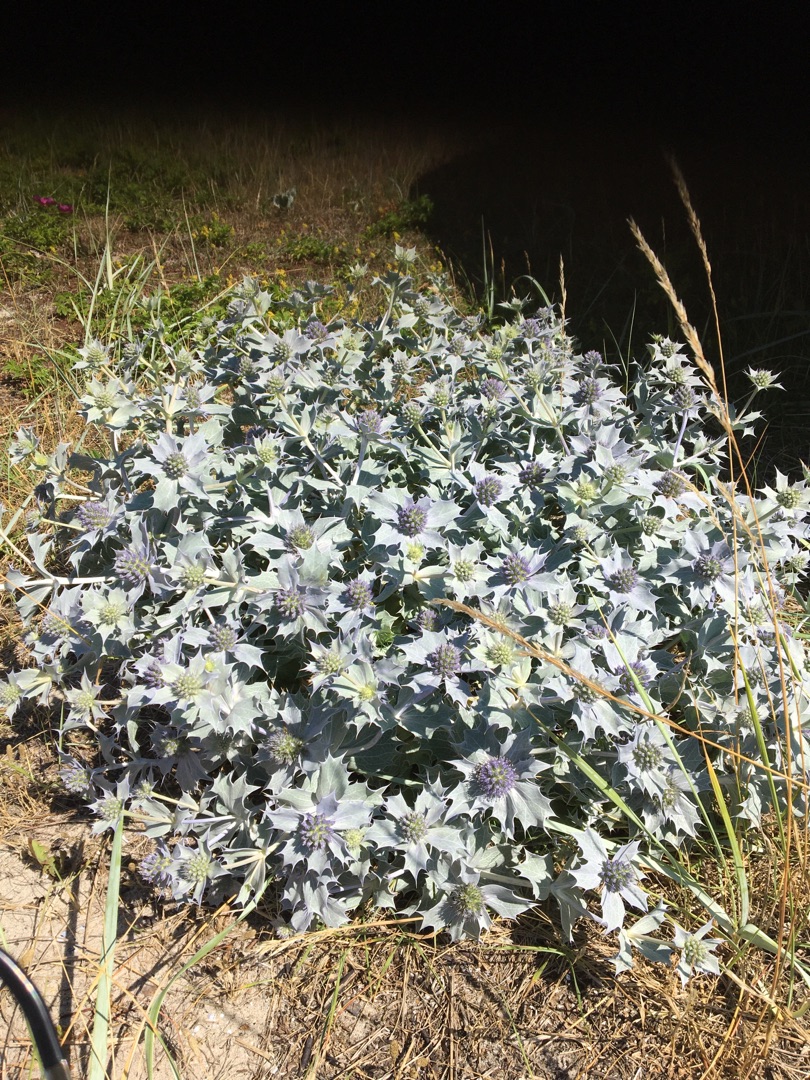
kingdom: Plantae
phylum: Tracheophyta
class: Magnoliopsida
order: Apiales
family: Apiaceae
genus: Eryngium
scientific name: Eryngium maritimum
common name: Strand-mandstro
